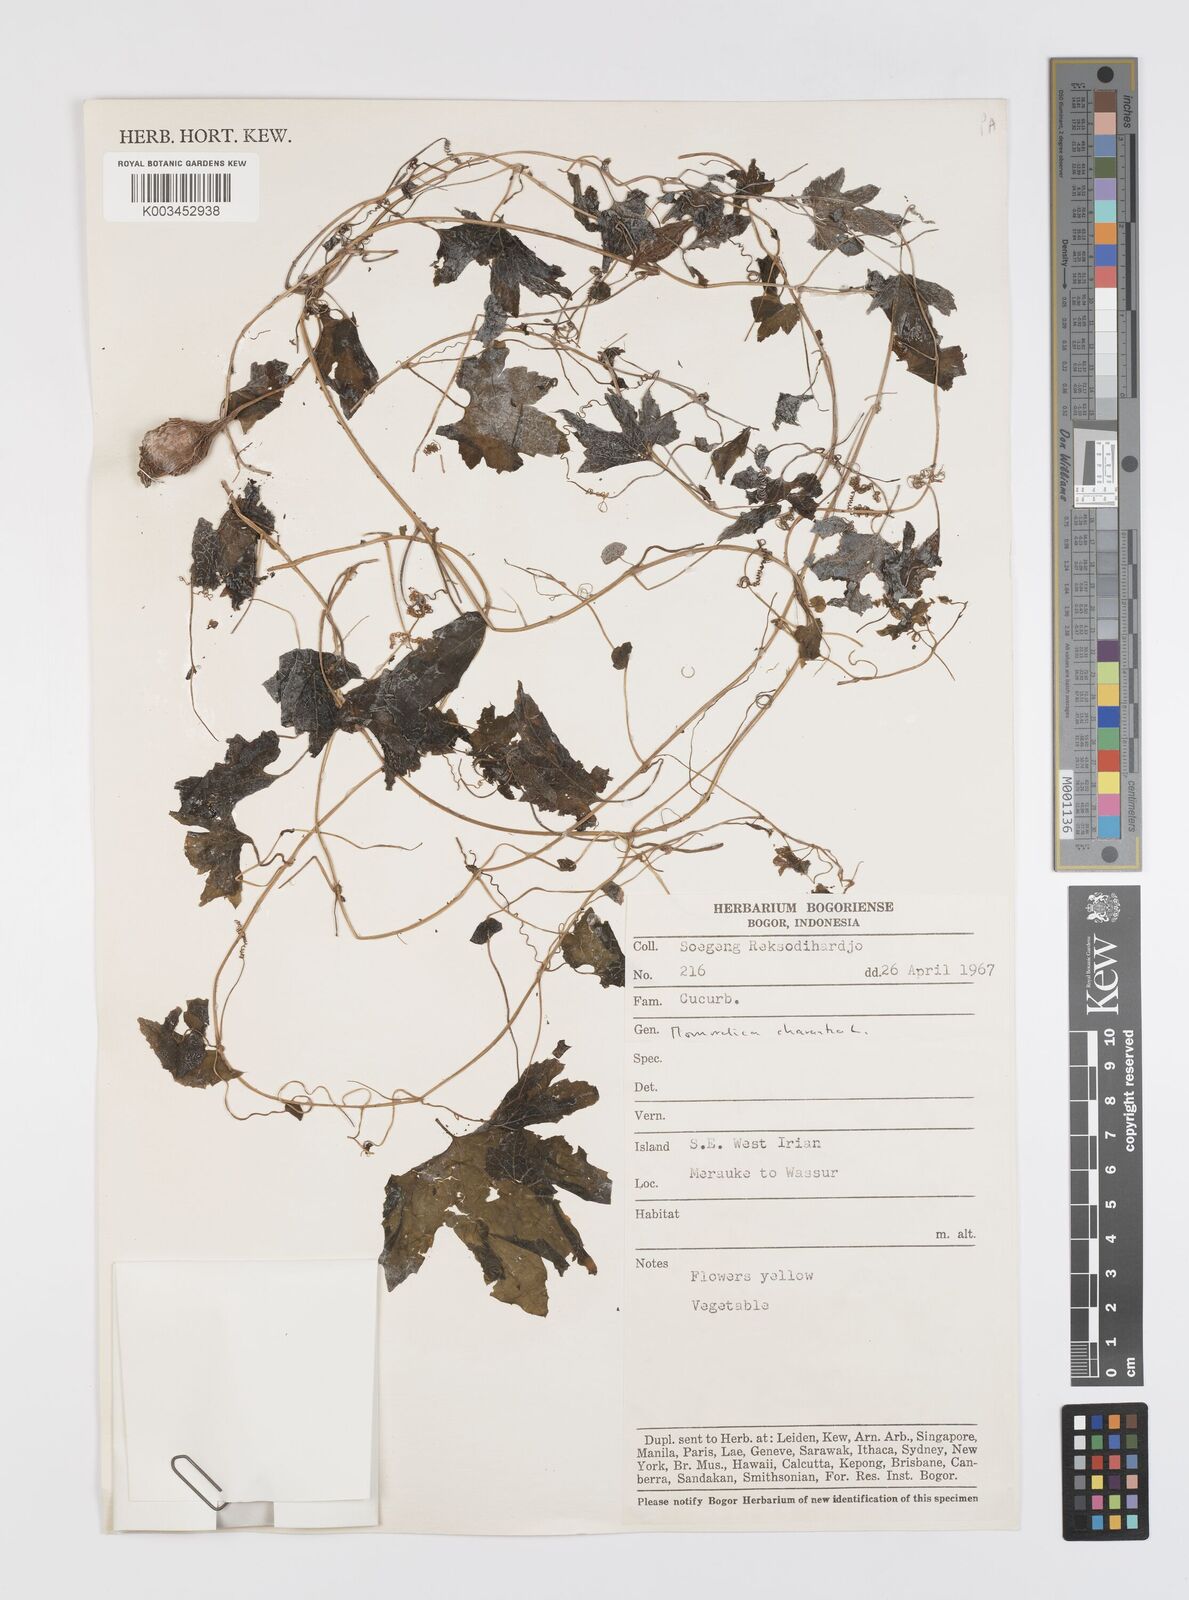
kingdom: Plantae
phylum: Tracheophyta
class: Magnoliopsida
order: Cucurbitales
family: Cucurbitaceae
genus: Momordica
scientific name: Momordica charantia
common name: Balsampear
